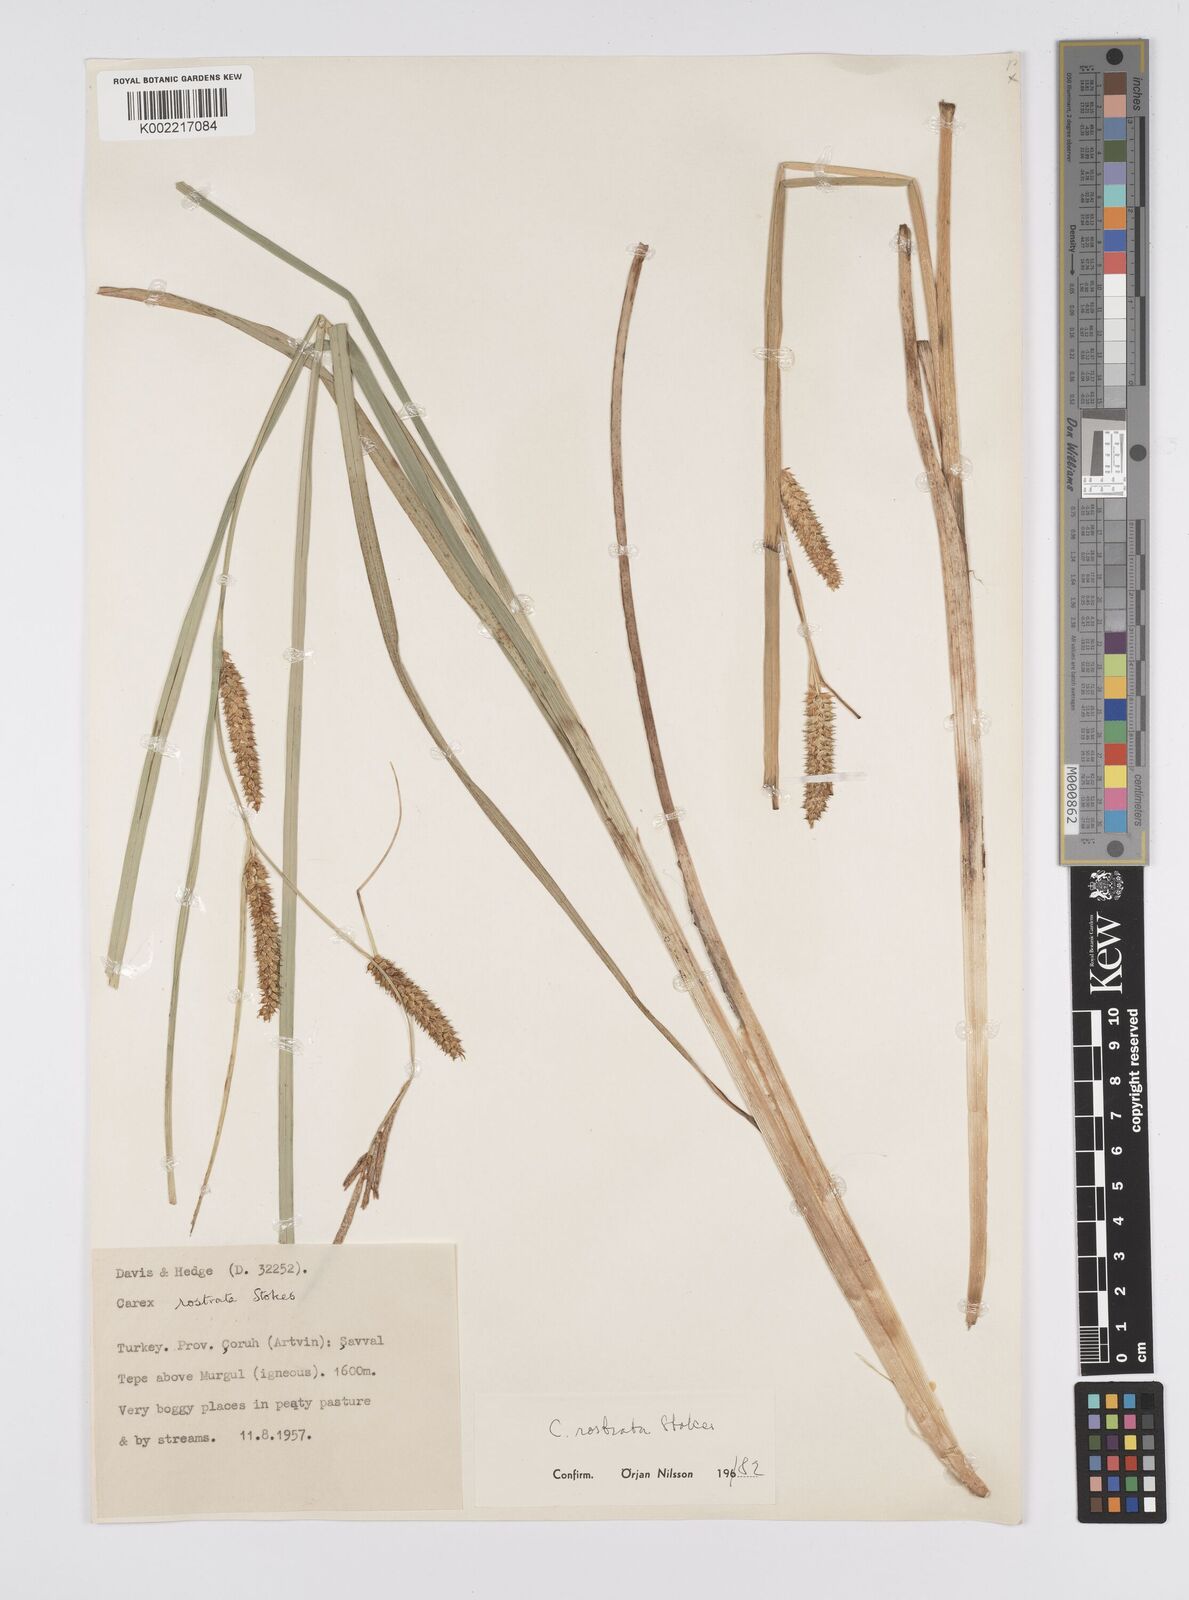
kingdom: Plantae
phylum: Tracheophyta
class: Liliopsida
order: Poales
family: Cyperaceae
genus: Carex
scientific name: Carex rostrata
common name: Bottle sedge
